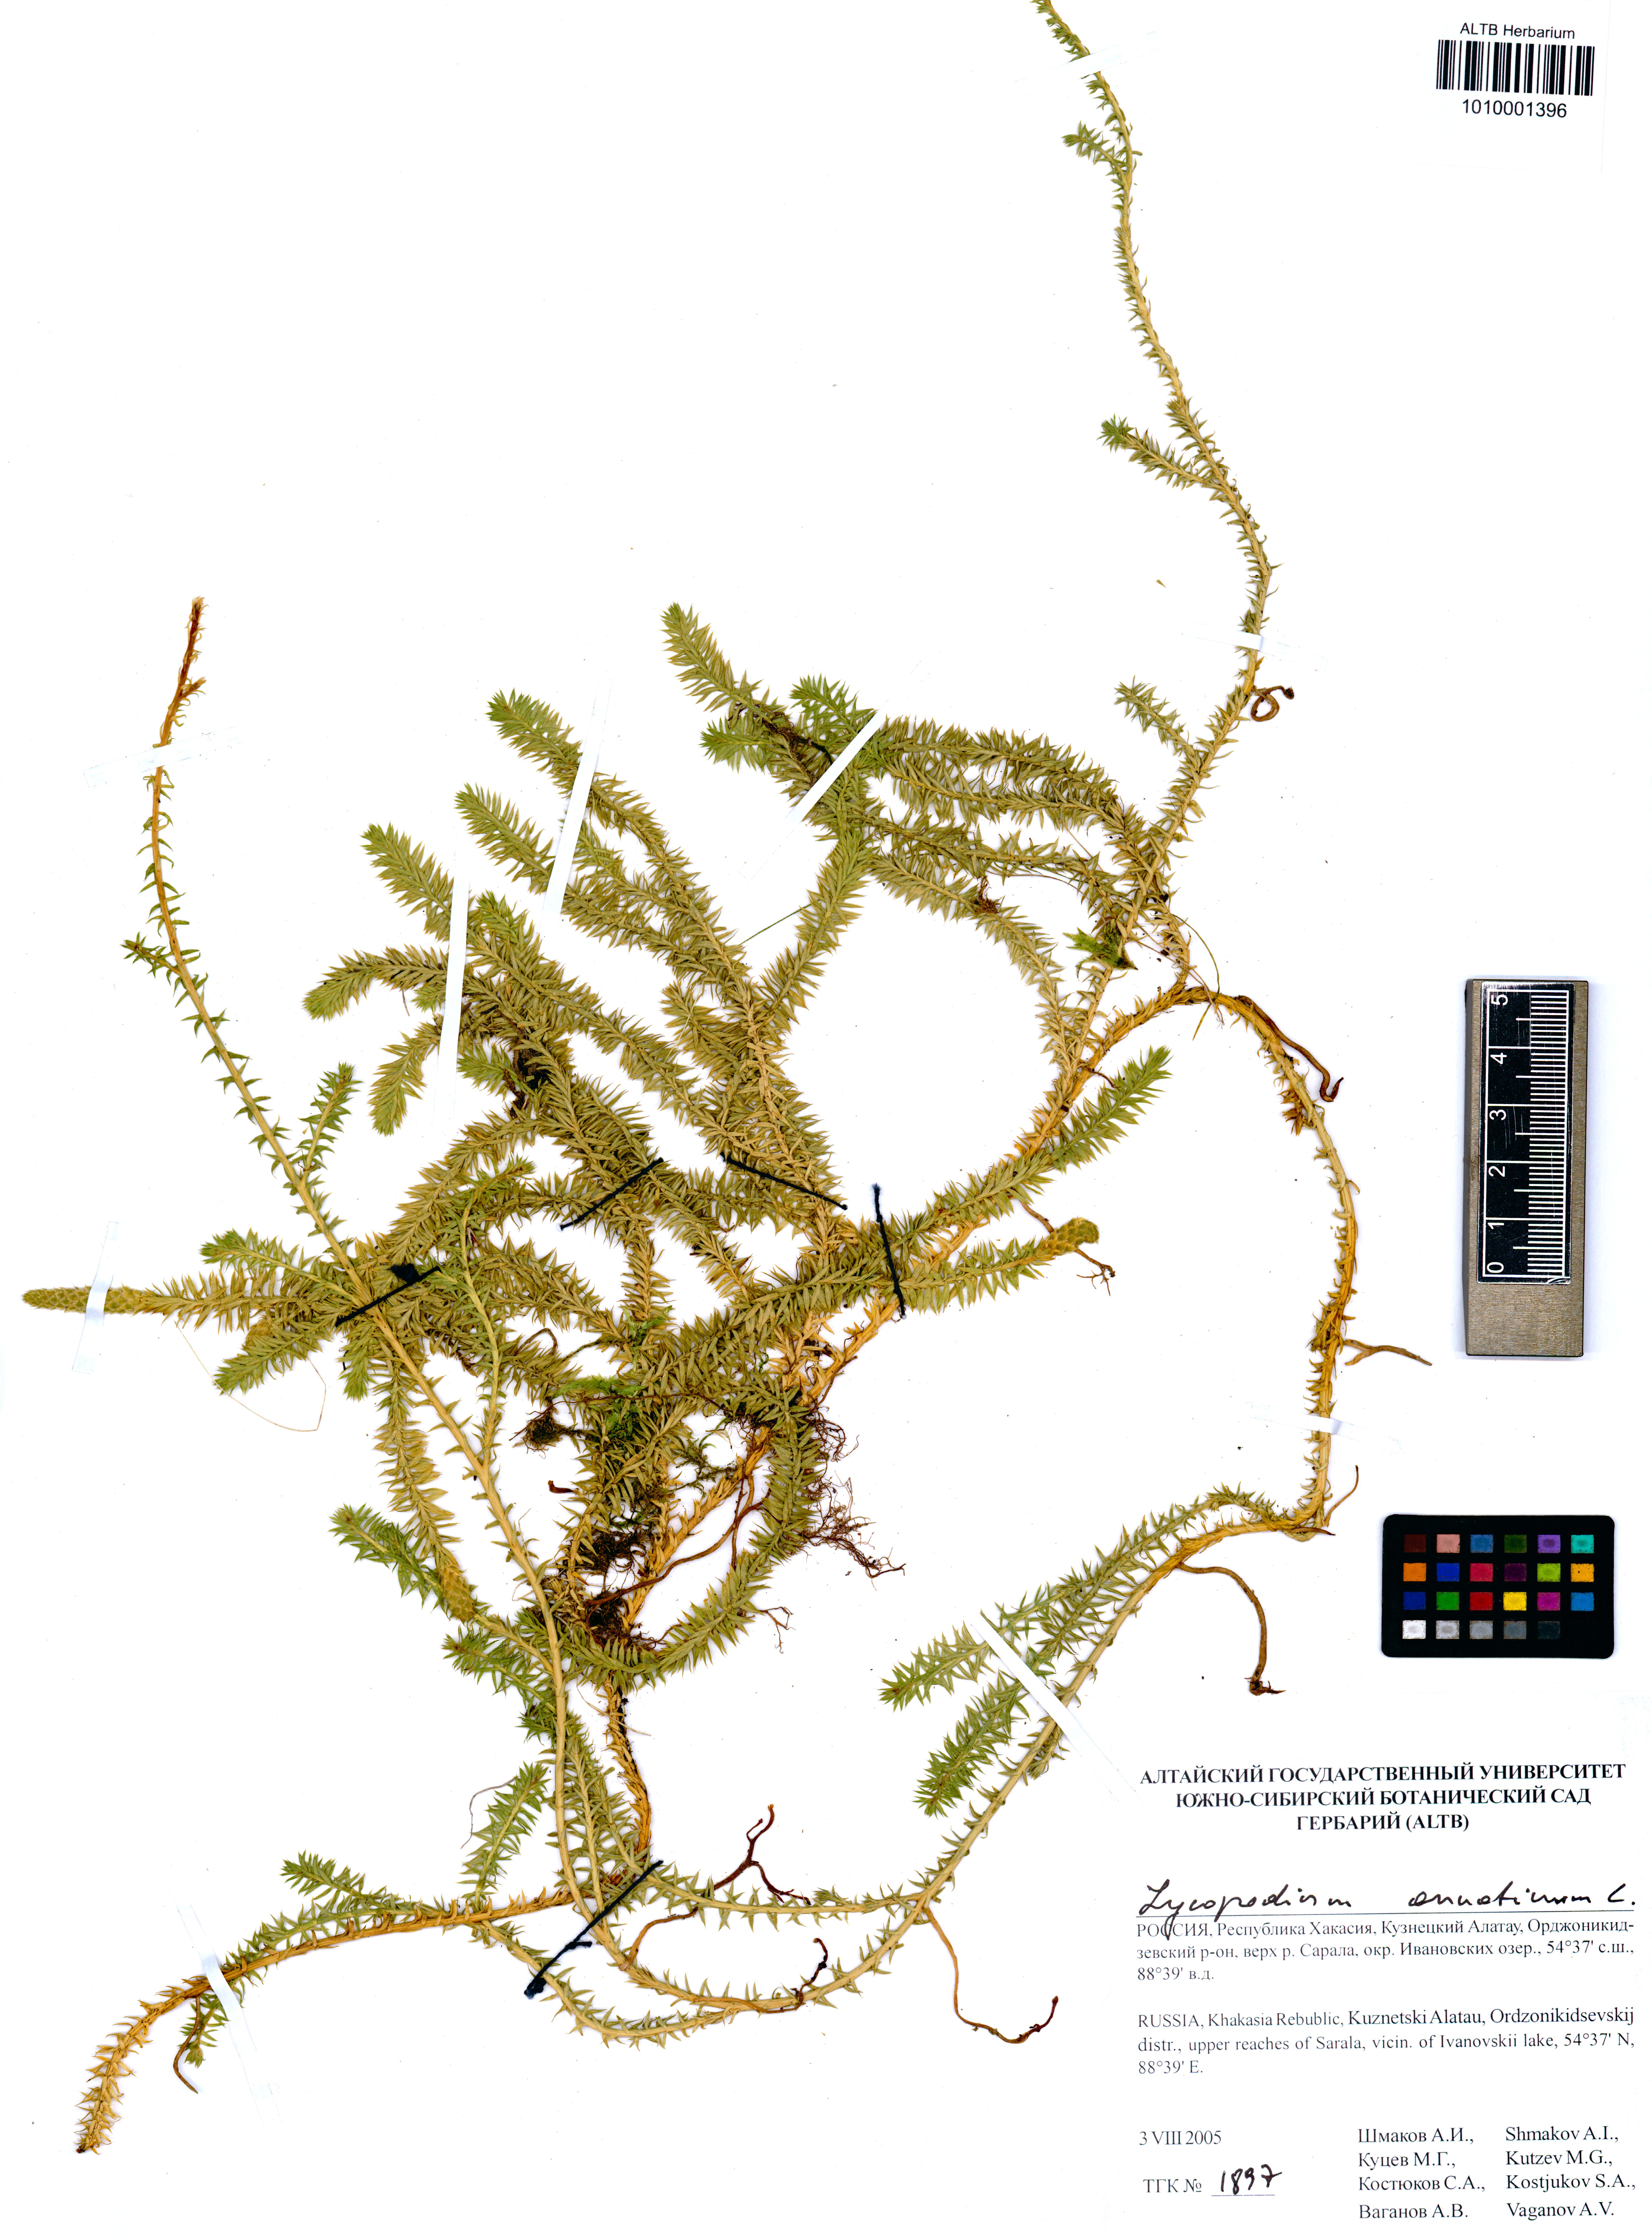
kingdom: Plantae
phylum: Tracheophyta
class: Lycopodiopsida
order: Lycopodiales
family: Lycopodiaceae
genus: Spinulum
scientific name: Spinulum annotinum
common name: Interrupted club-moss
